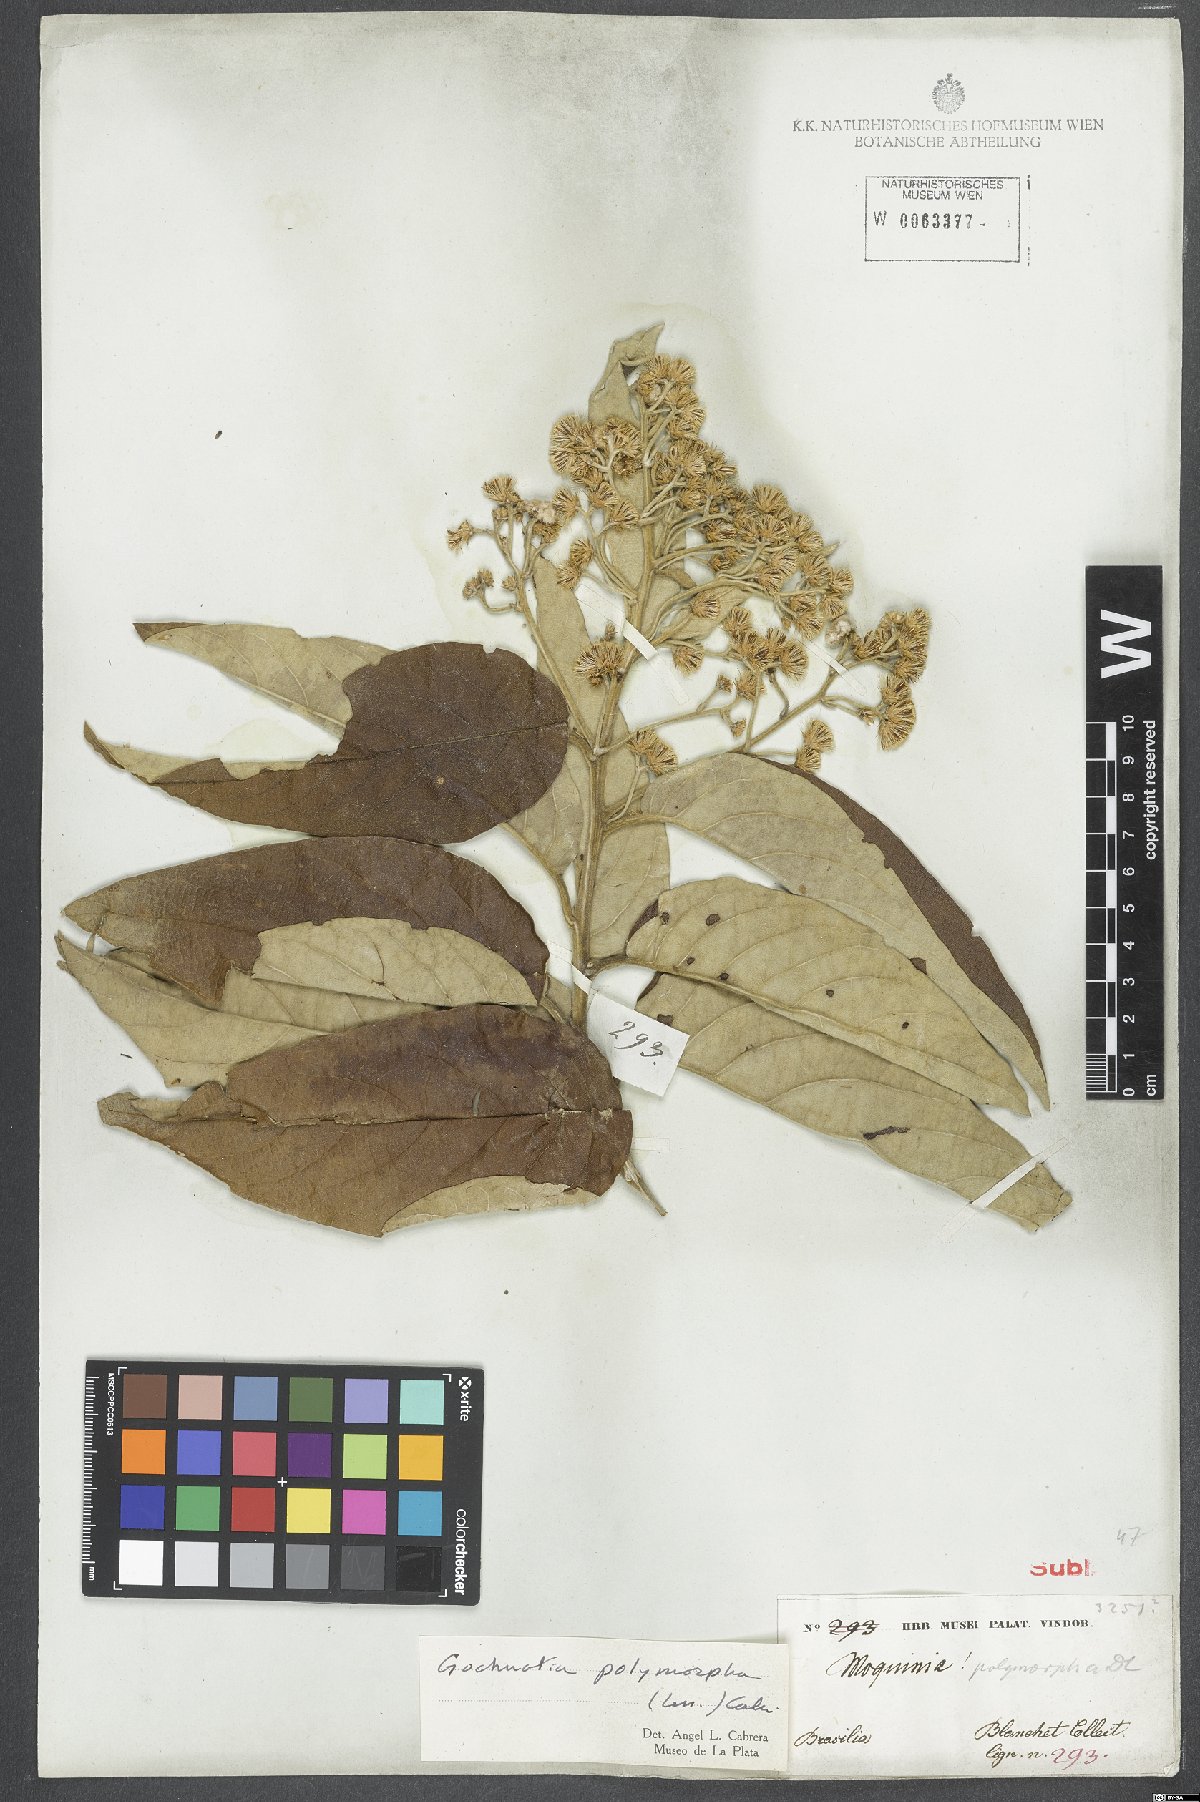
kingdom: Plantae
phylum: Tracheophyta
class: Magnoliopsida
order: Asterales
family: Asteraceae
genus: Moquiniastrum
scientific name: Moquiniastrum polymorphum
